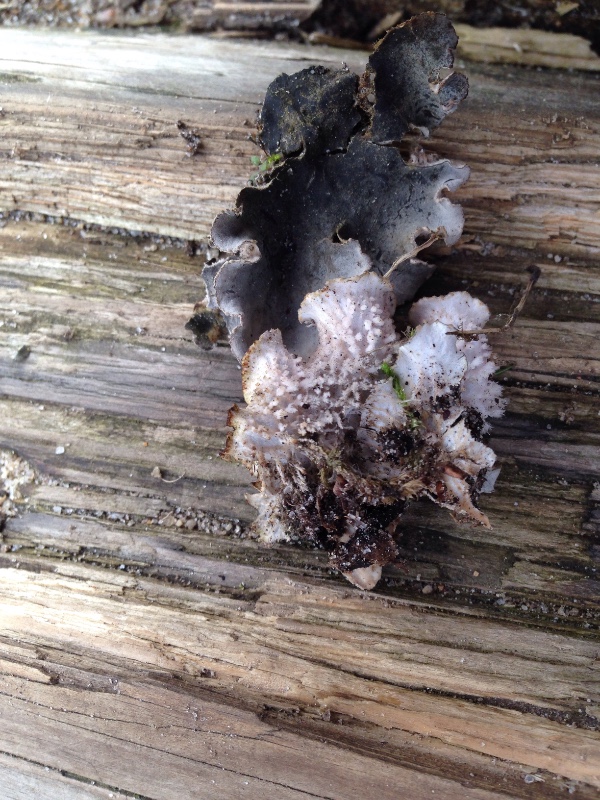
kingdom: Fungi
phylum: Ascomycota
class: Lecanoromycetes
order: Peltigerales
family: Peltigeraceae
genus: Peltigera
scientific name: Peltigera canina
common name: hunde-skjoldlav
